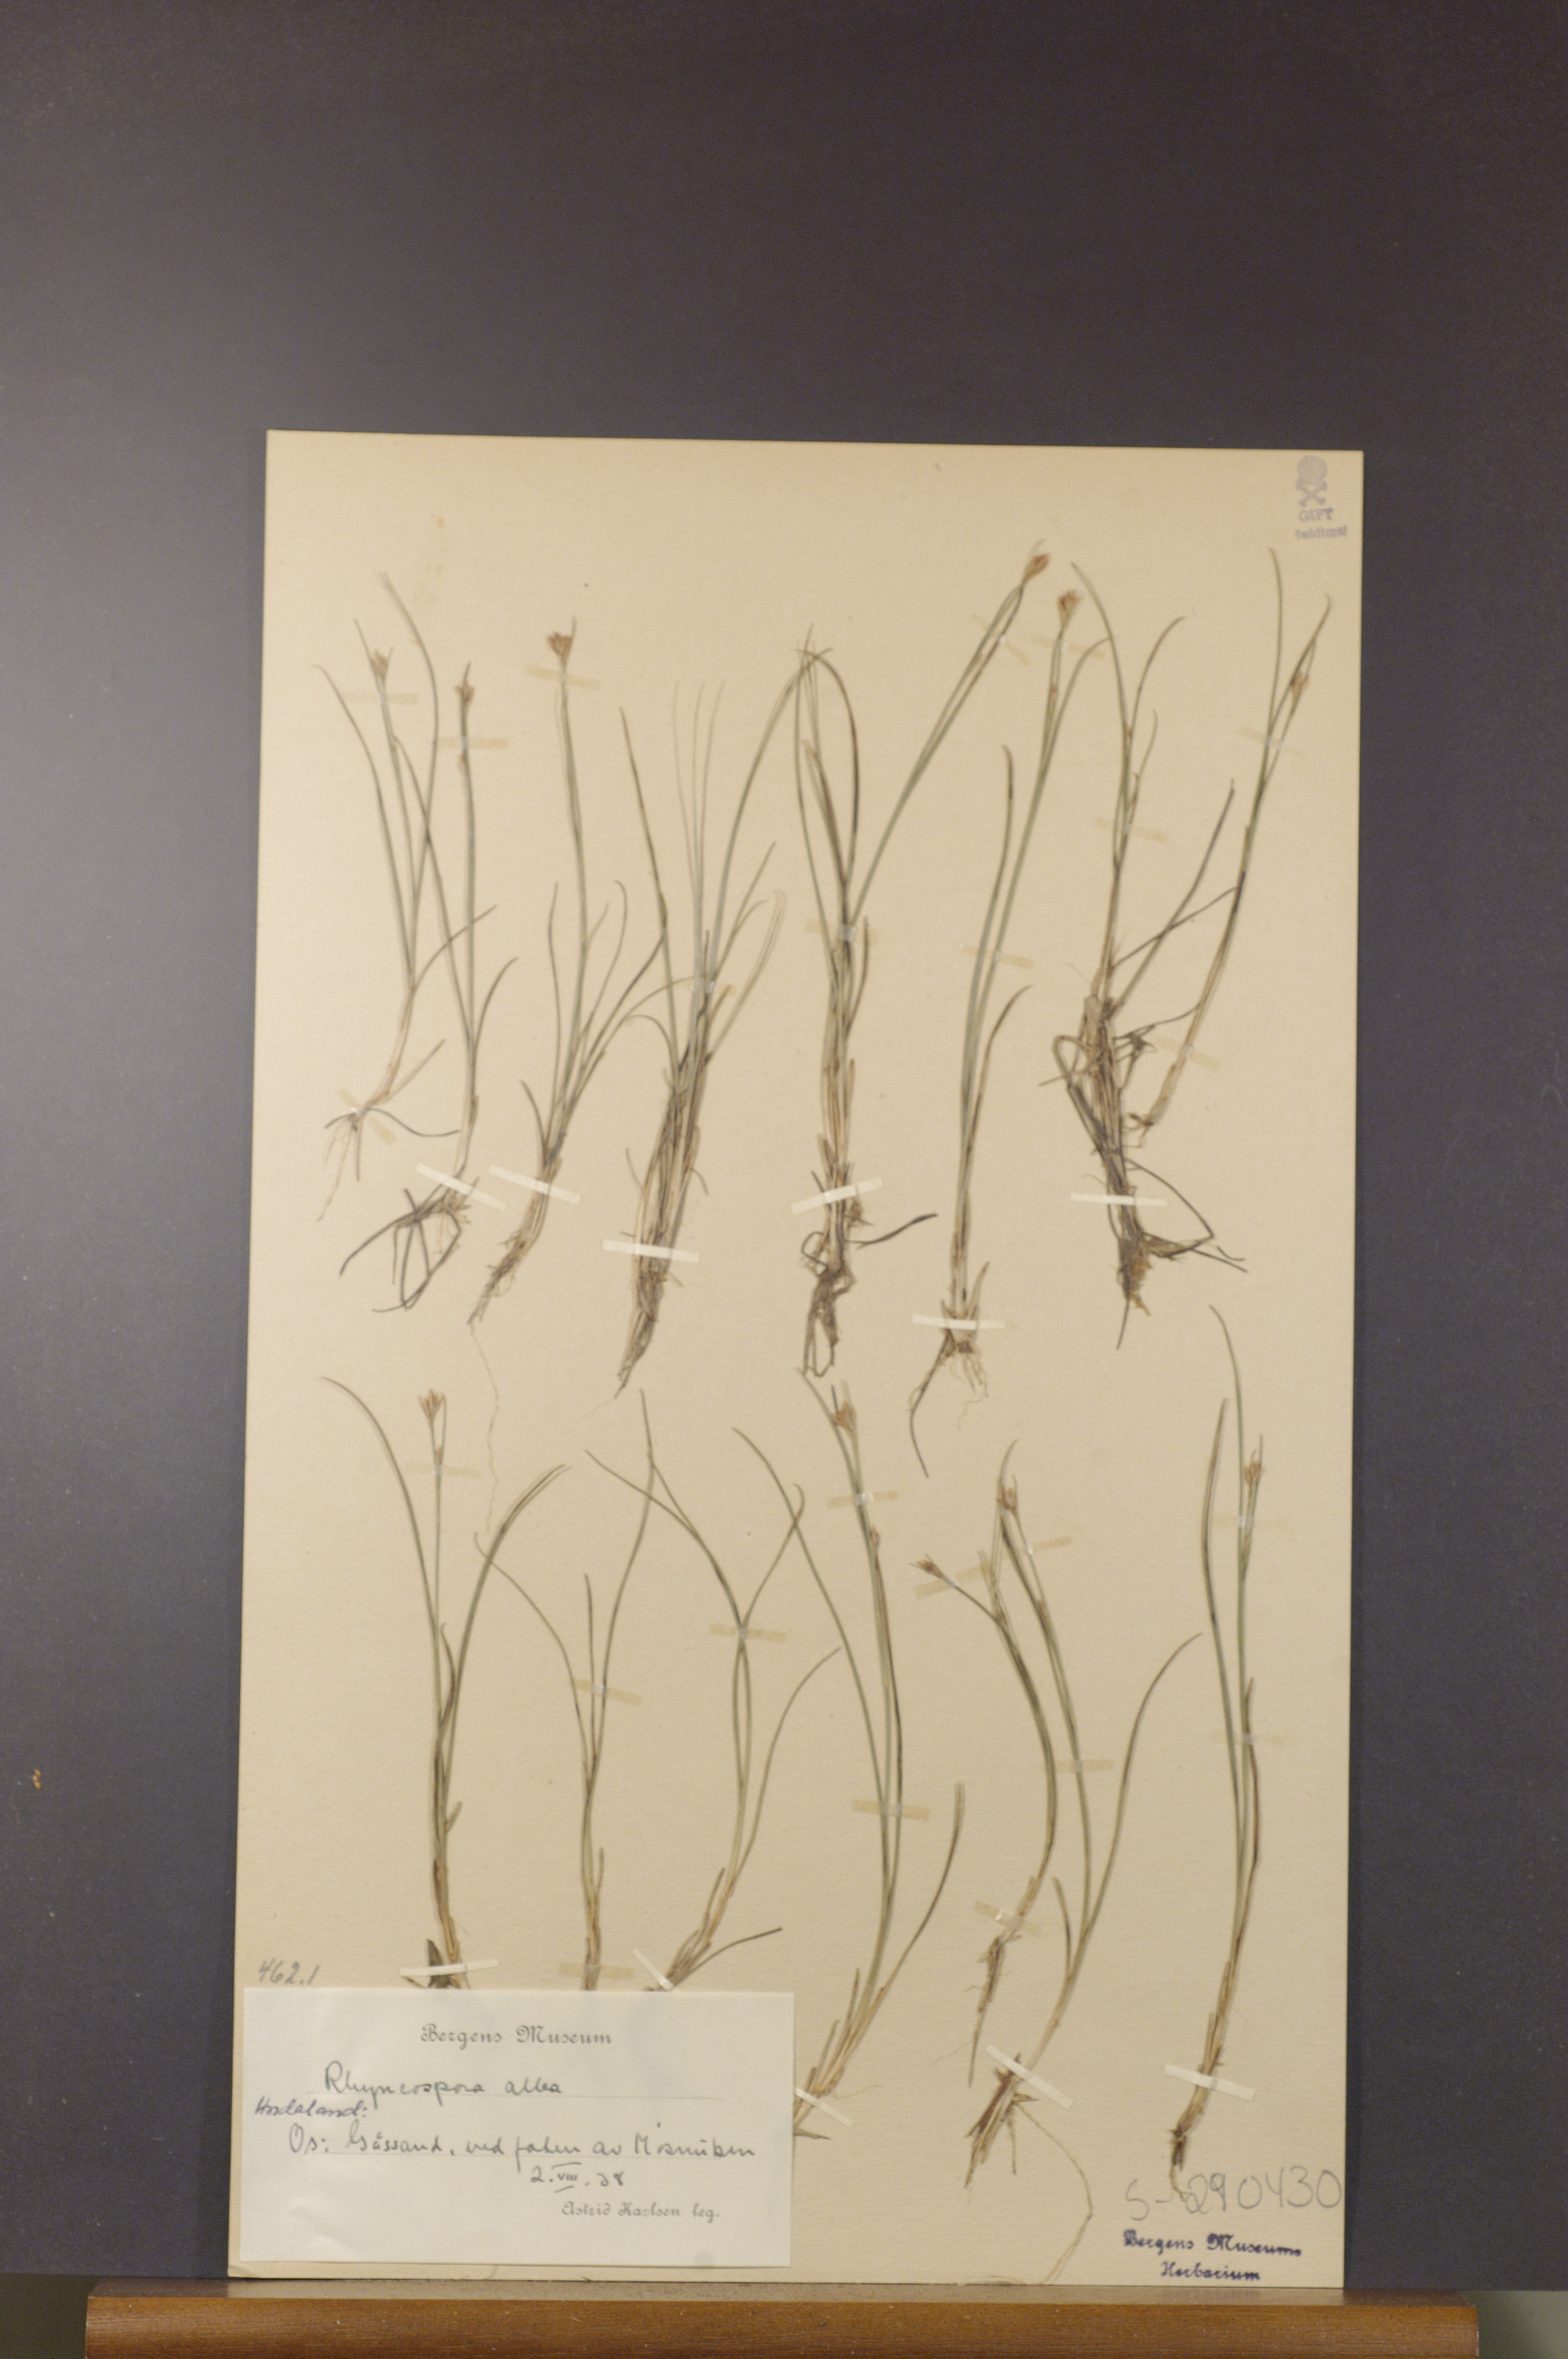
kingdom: Plantae
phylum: Tracheophyta
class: Liliopsida
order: Poales
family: Cyperaceae
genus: Rhynchospora
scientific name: Rhynchospora alba
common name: White beak-sedge
